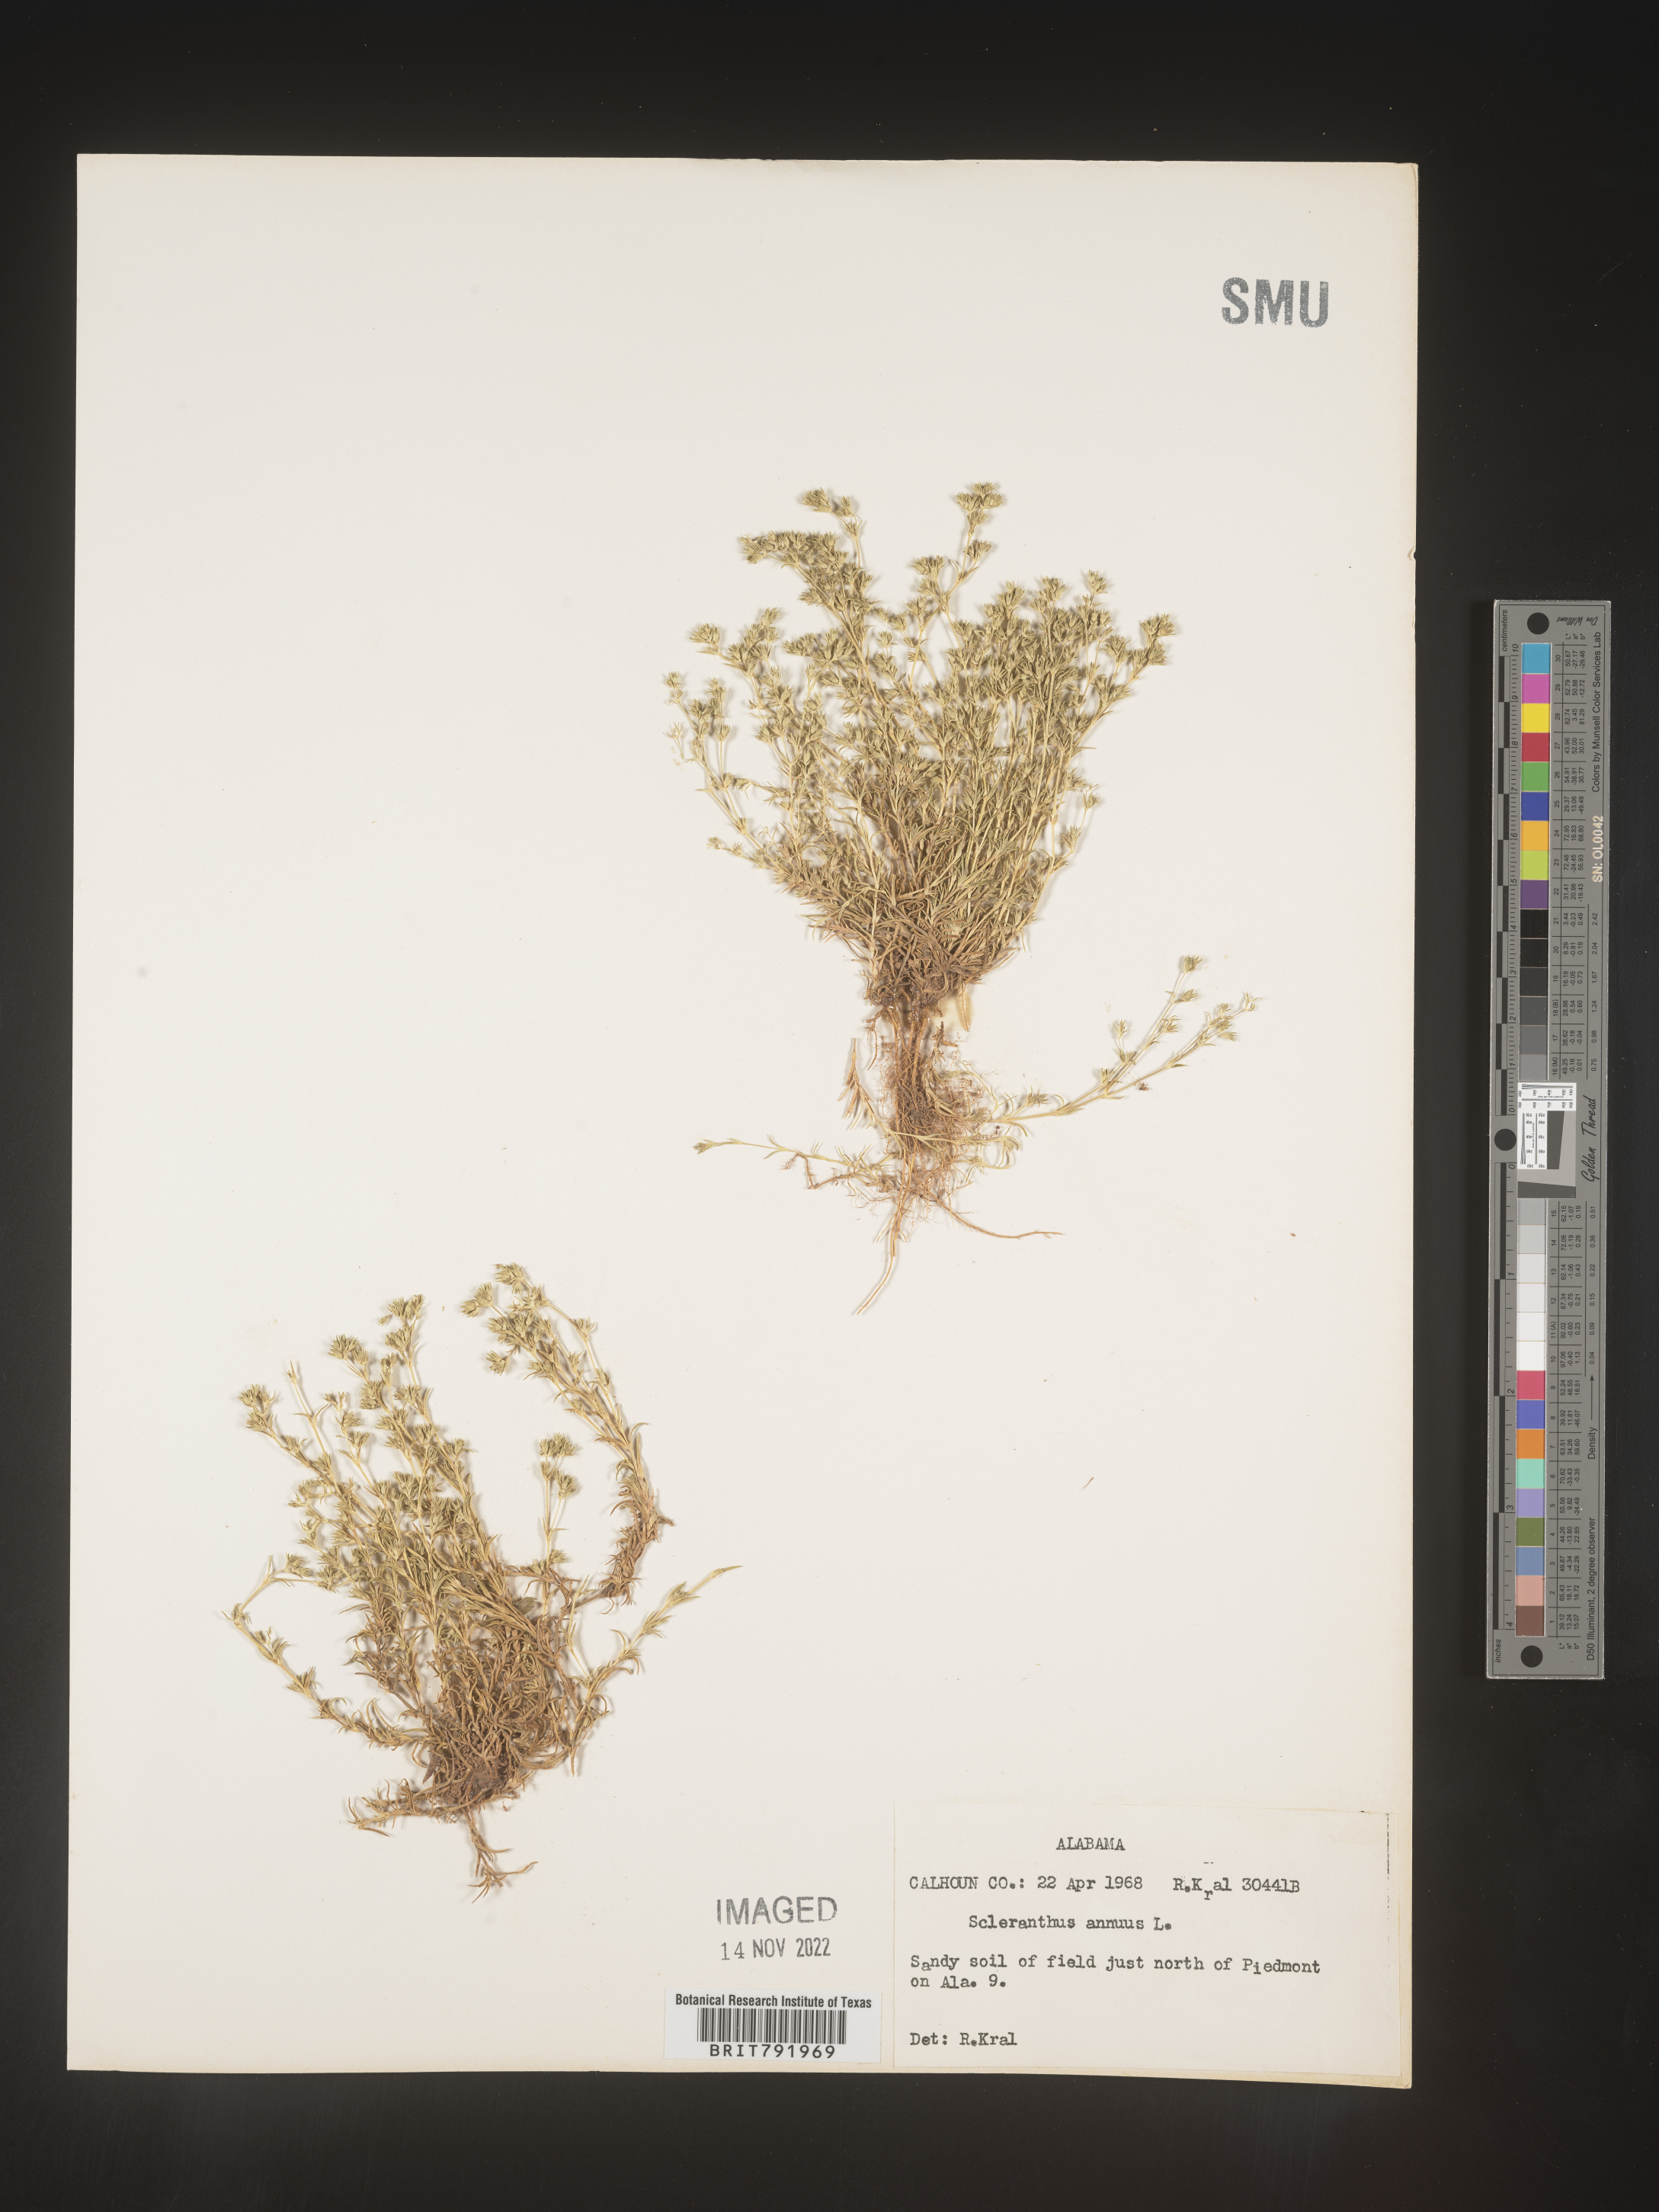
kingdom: Plantae
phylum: Tracheophyta
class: Magnoliopsida
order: Caryophyllales
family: Caryophyllaceae
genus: Scleranthus
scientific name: Scleranthus
